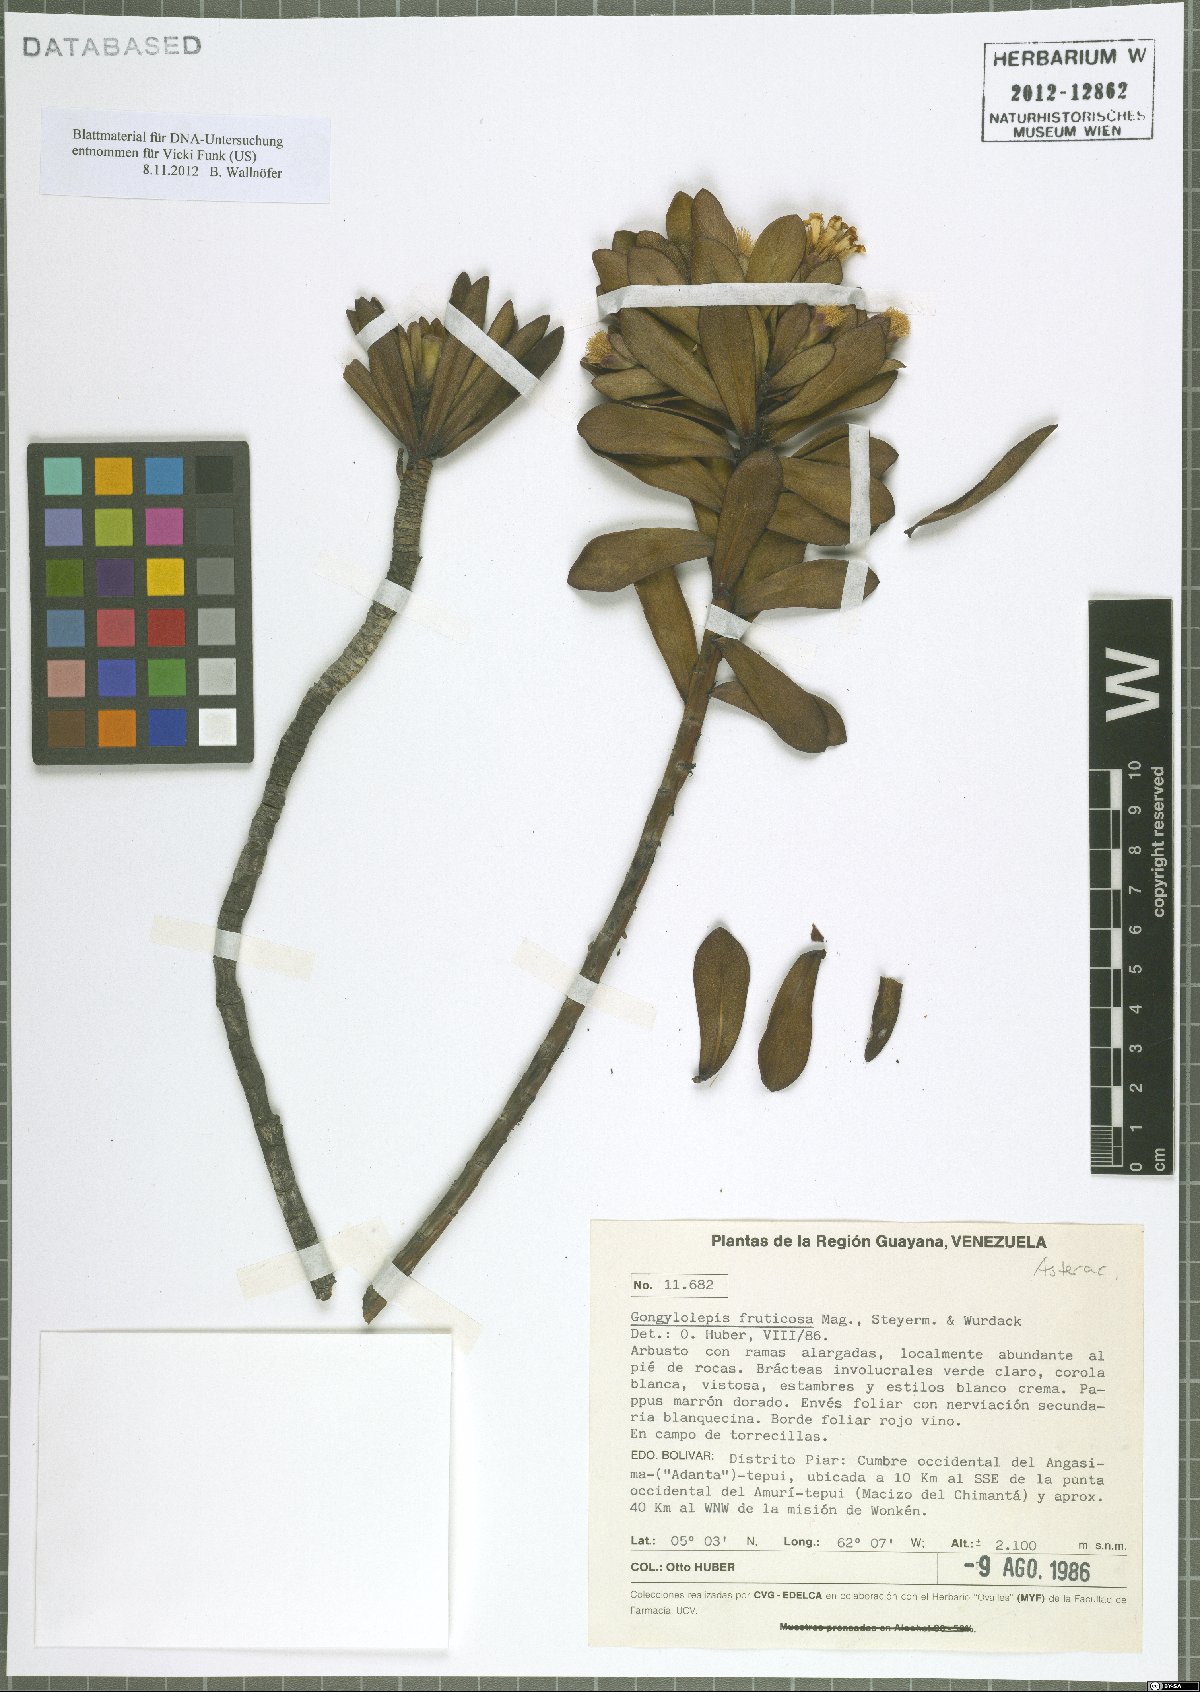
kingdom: Plantae
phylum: Tracheophyta
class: Magnoliopsida
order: Asterales
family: Asteraceae
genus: Gongylolepis
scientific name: Gongylolepis fruticosa
